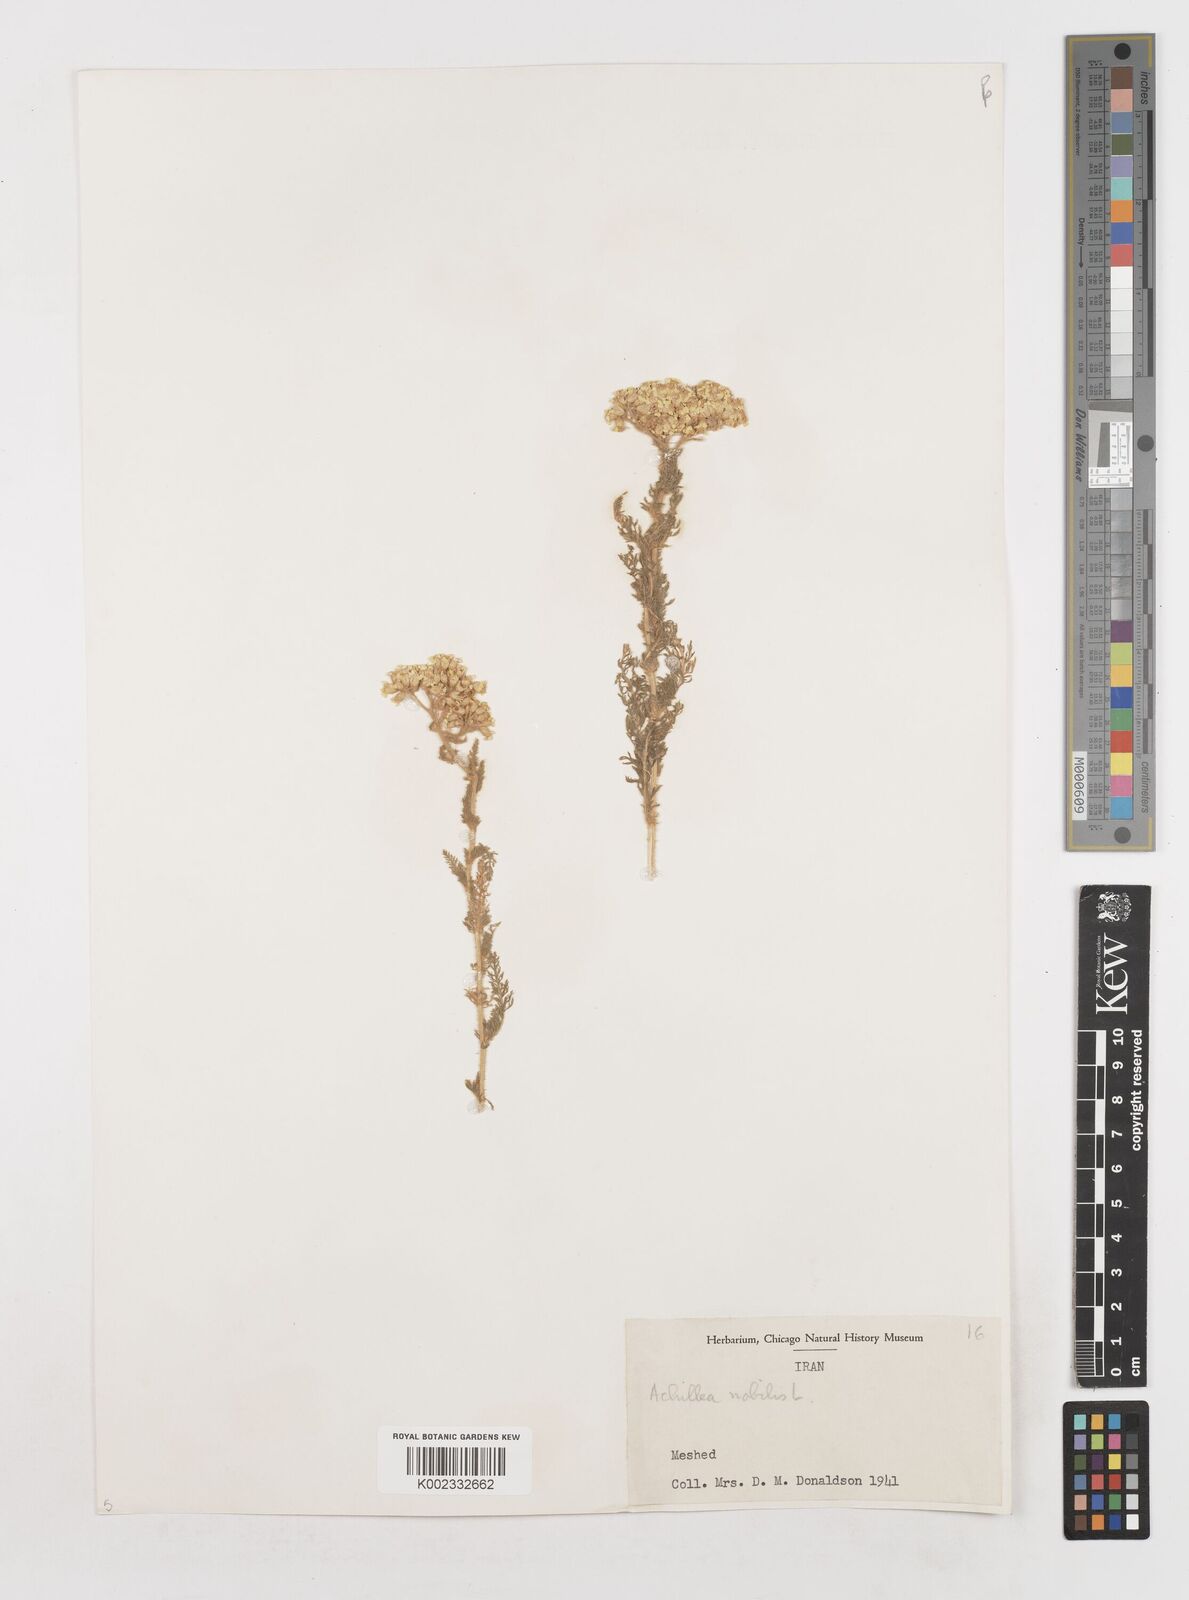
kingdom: Plantae
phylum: Tracheophyta
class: Magnoliopsida
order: Asterales
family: Asteraceae
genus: Achillea
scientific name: Achillea nobilis
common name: Noble yarrow
